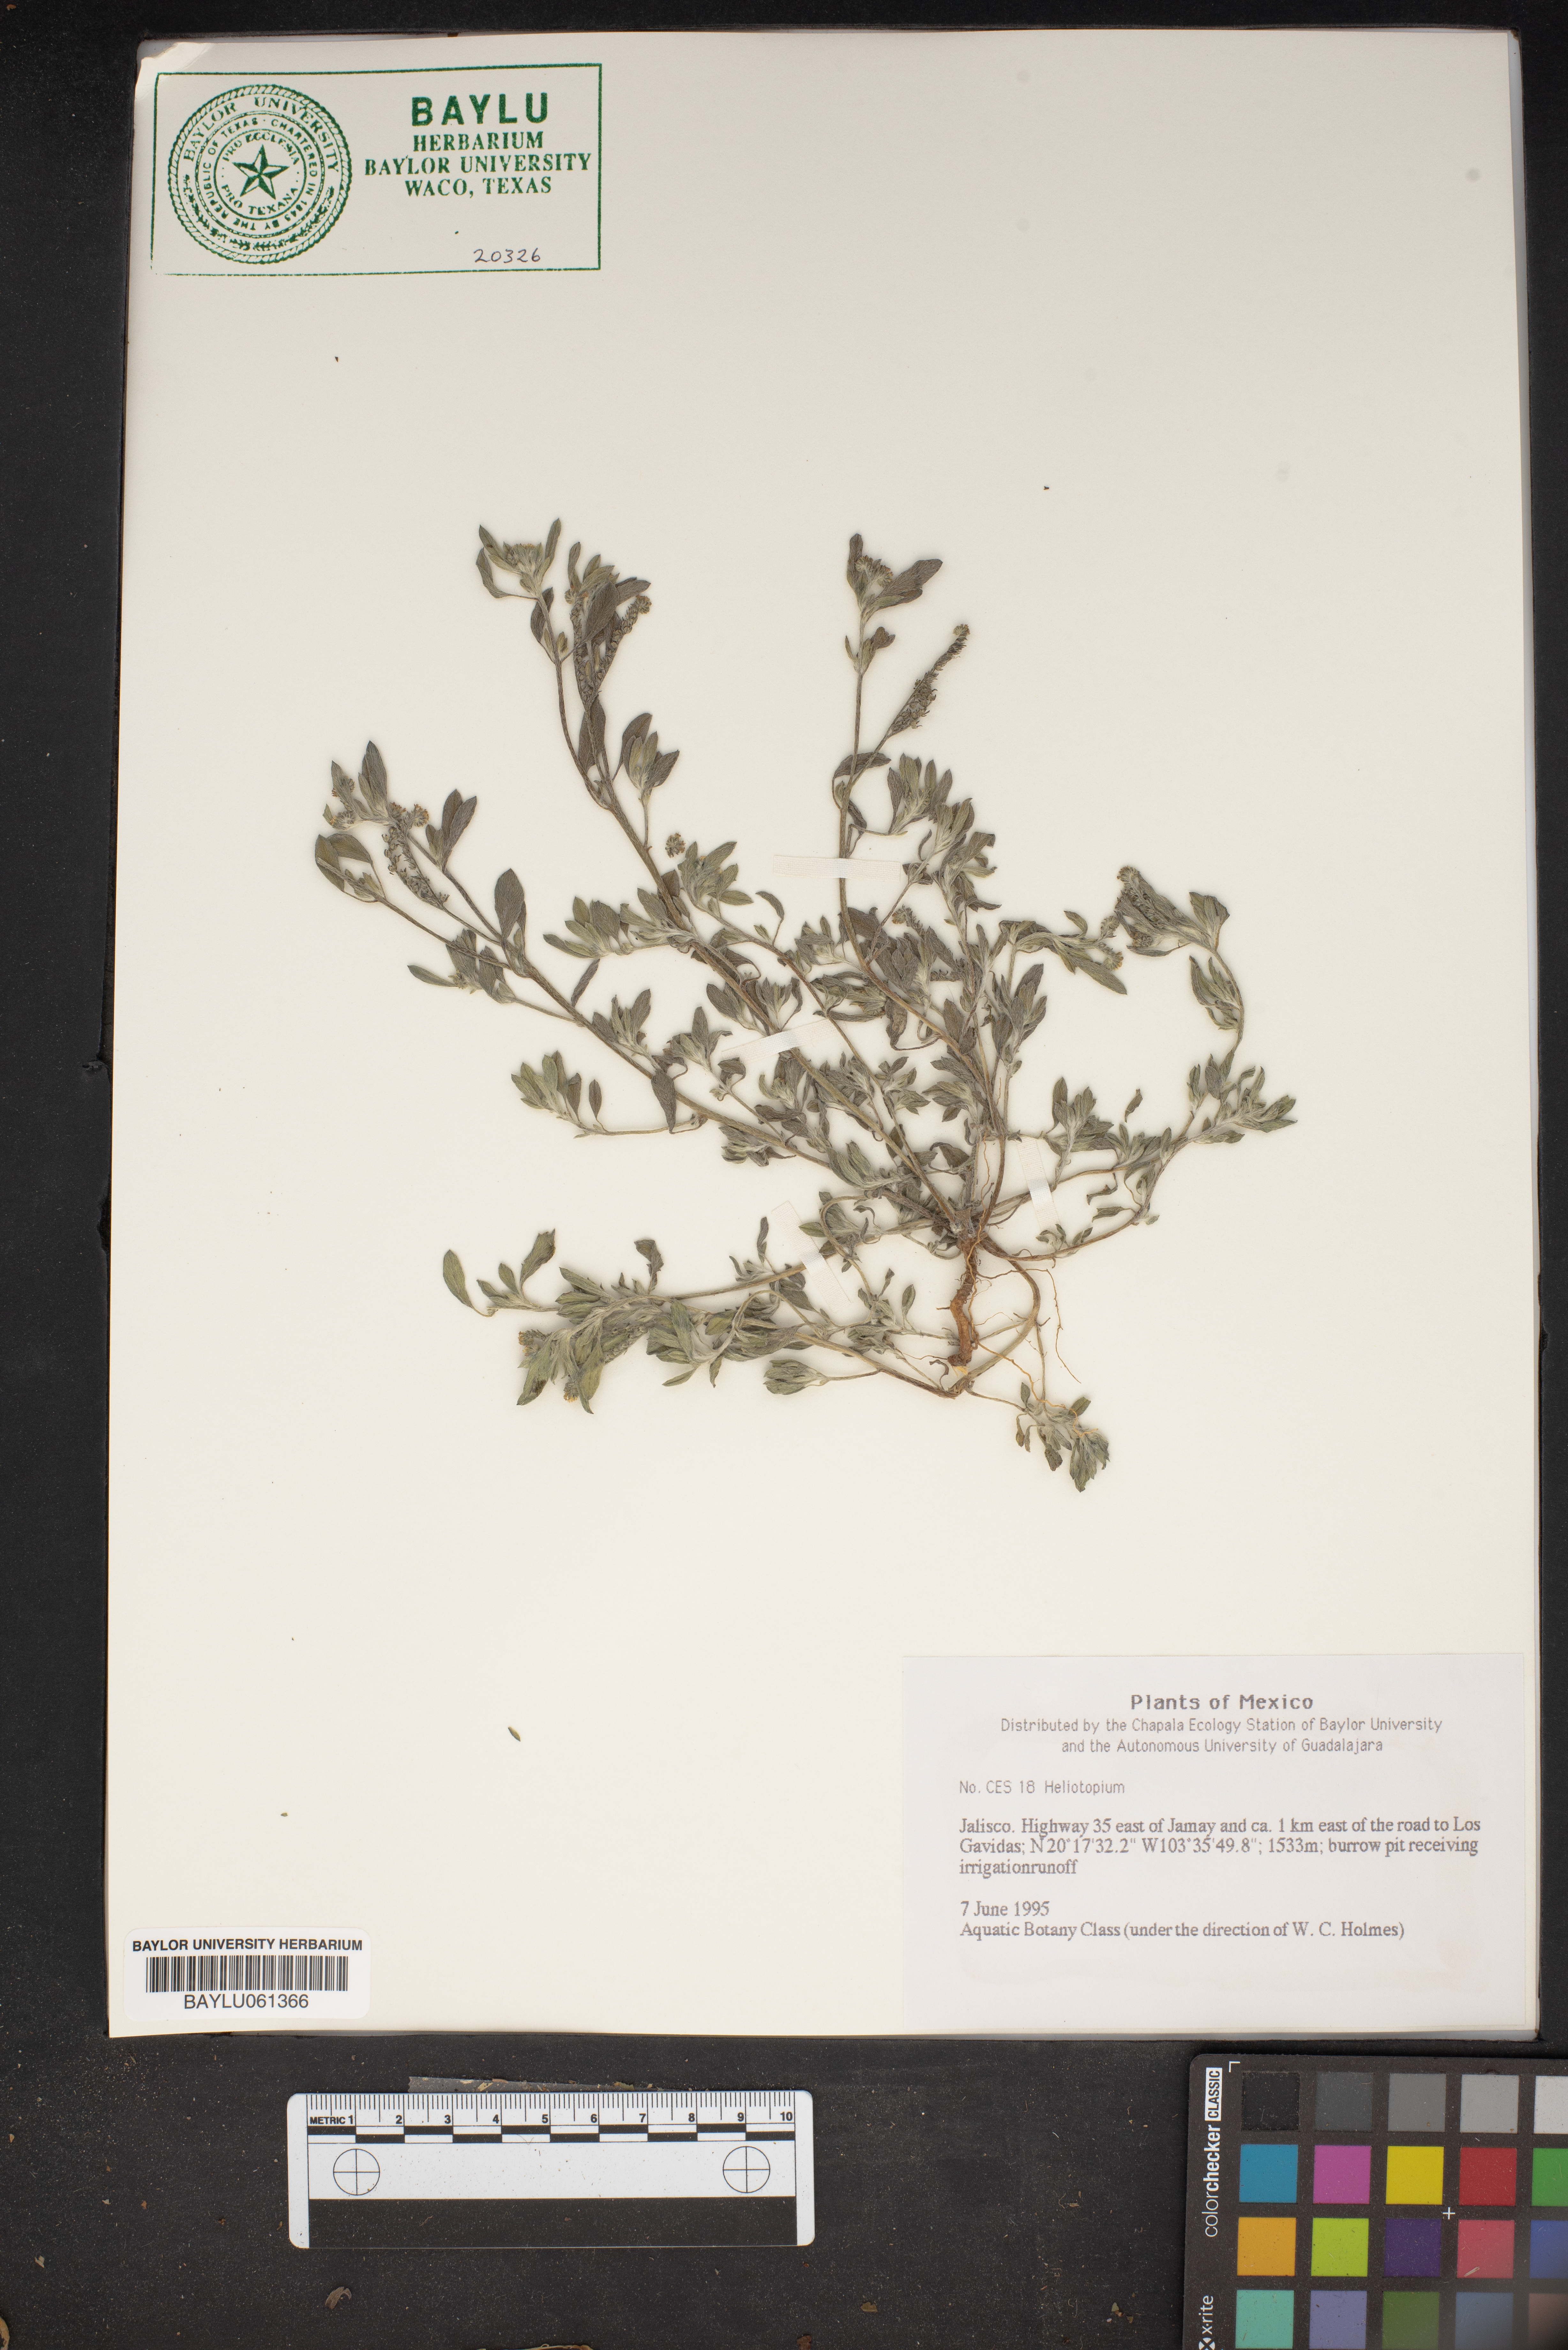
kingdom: Plantae
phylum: Tracheophyta
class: Magnoliopsida
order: Boraginales
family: Heliotropiaceae
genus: Heliotropium
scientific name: Heliotropium
